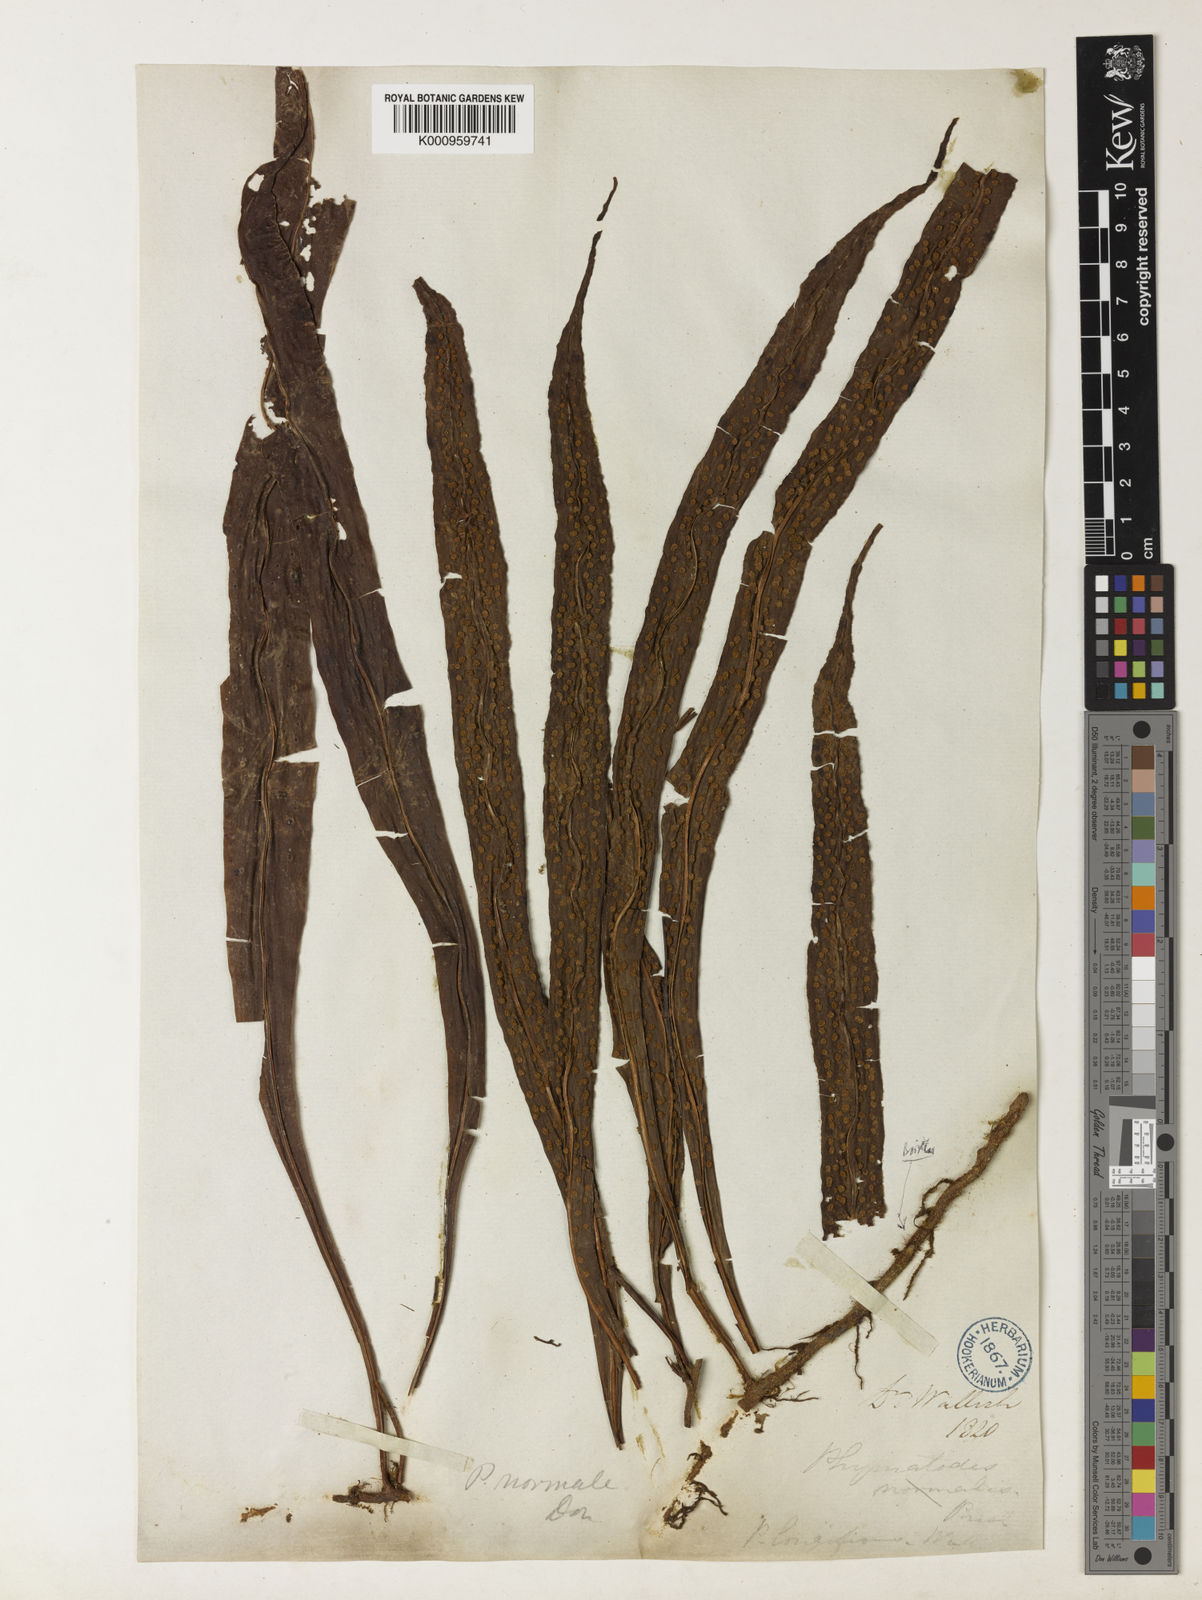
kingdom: Plantae
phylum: Tracheophyta
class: Polypodiopsida
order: Polypodiales
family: Polypodiaceae
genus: Lepisorus
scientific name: Lepisorus normalis
